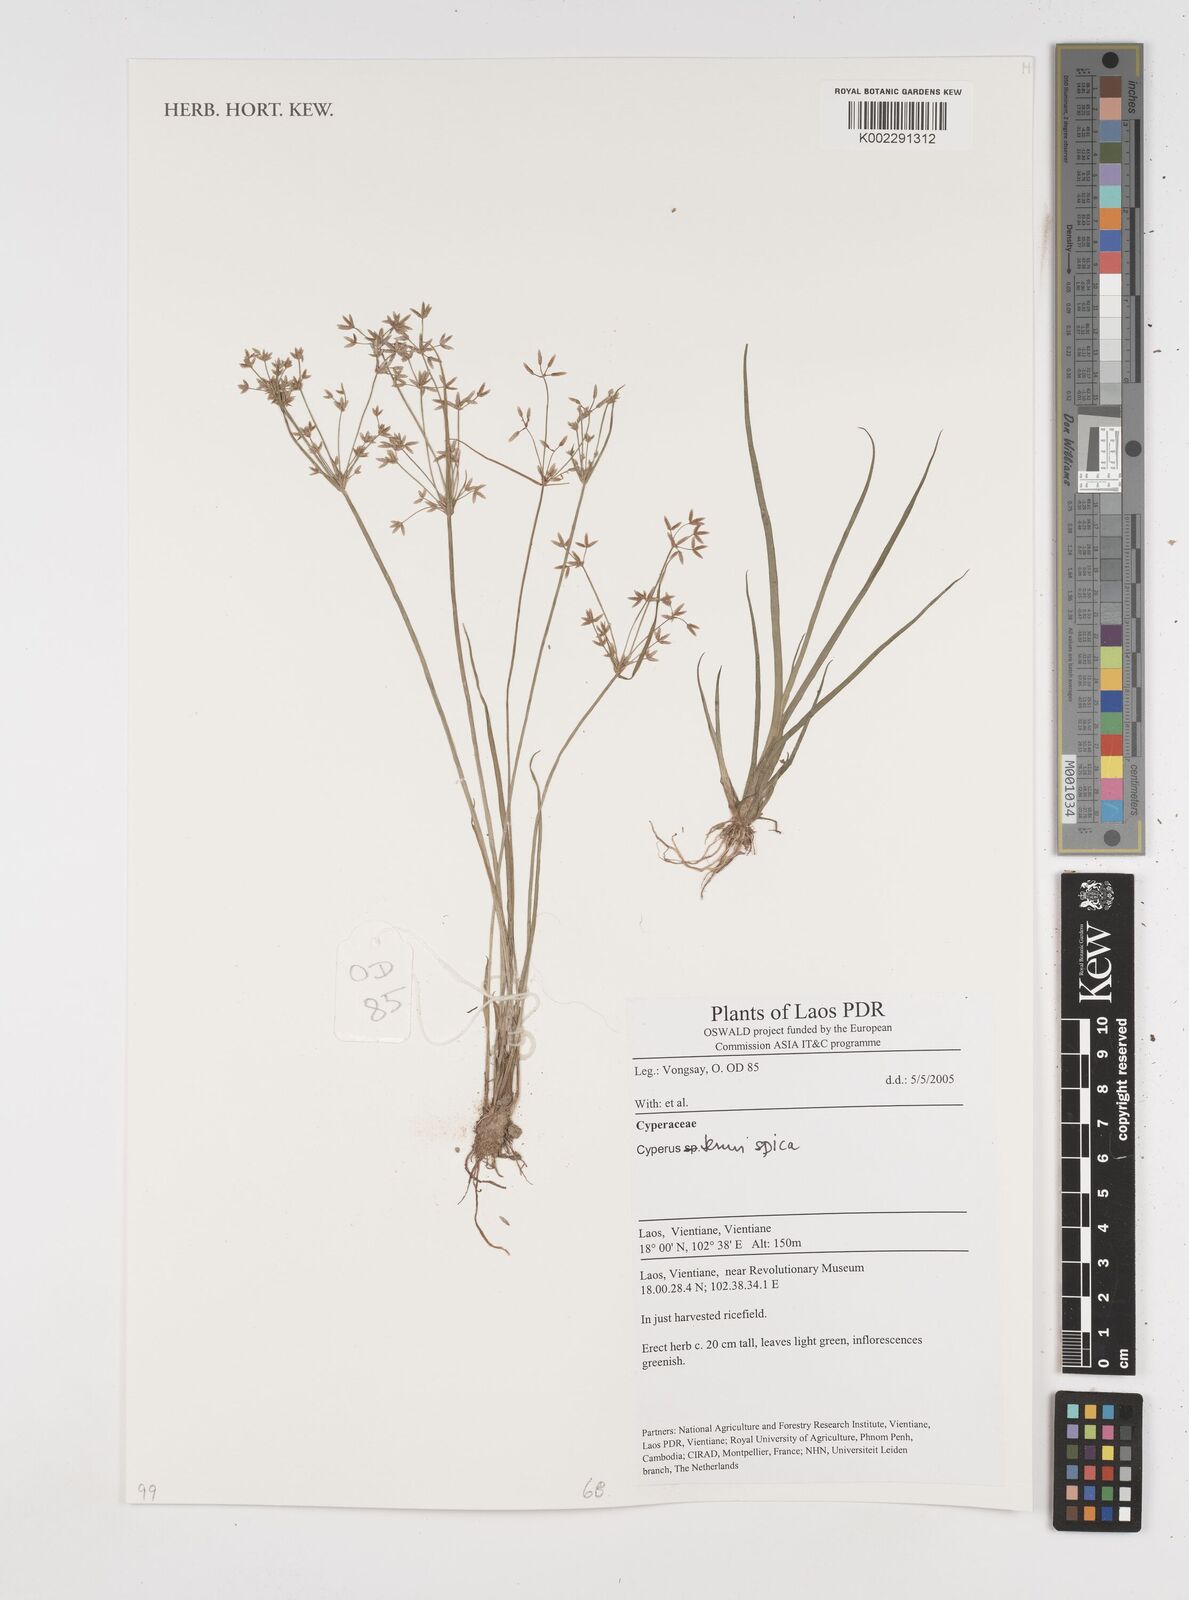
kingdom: Plantae
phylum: Tracheophyta
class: Liliopsida
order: Poales
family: Cyperaceae
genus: Cyperus
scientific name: Cyperus tenuispica
